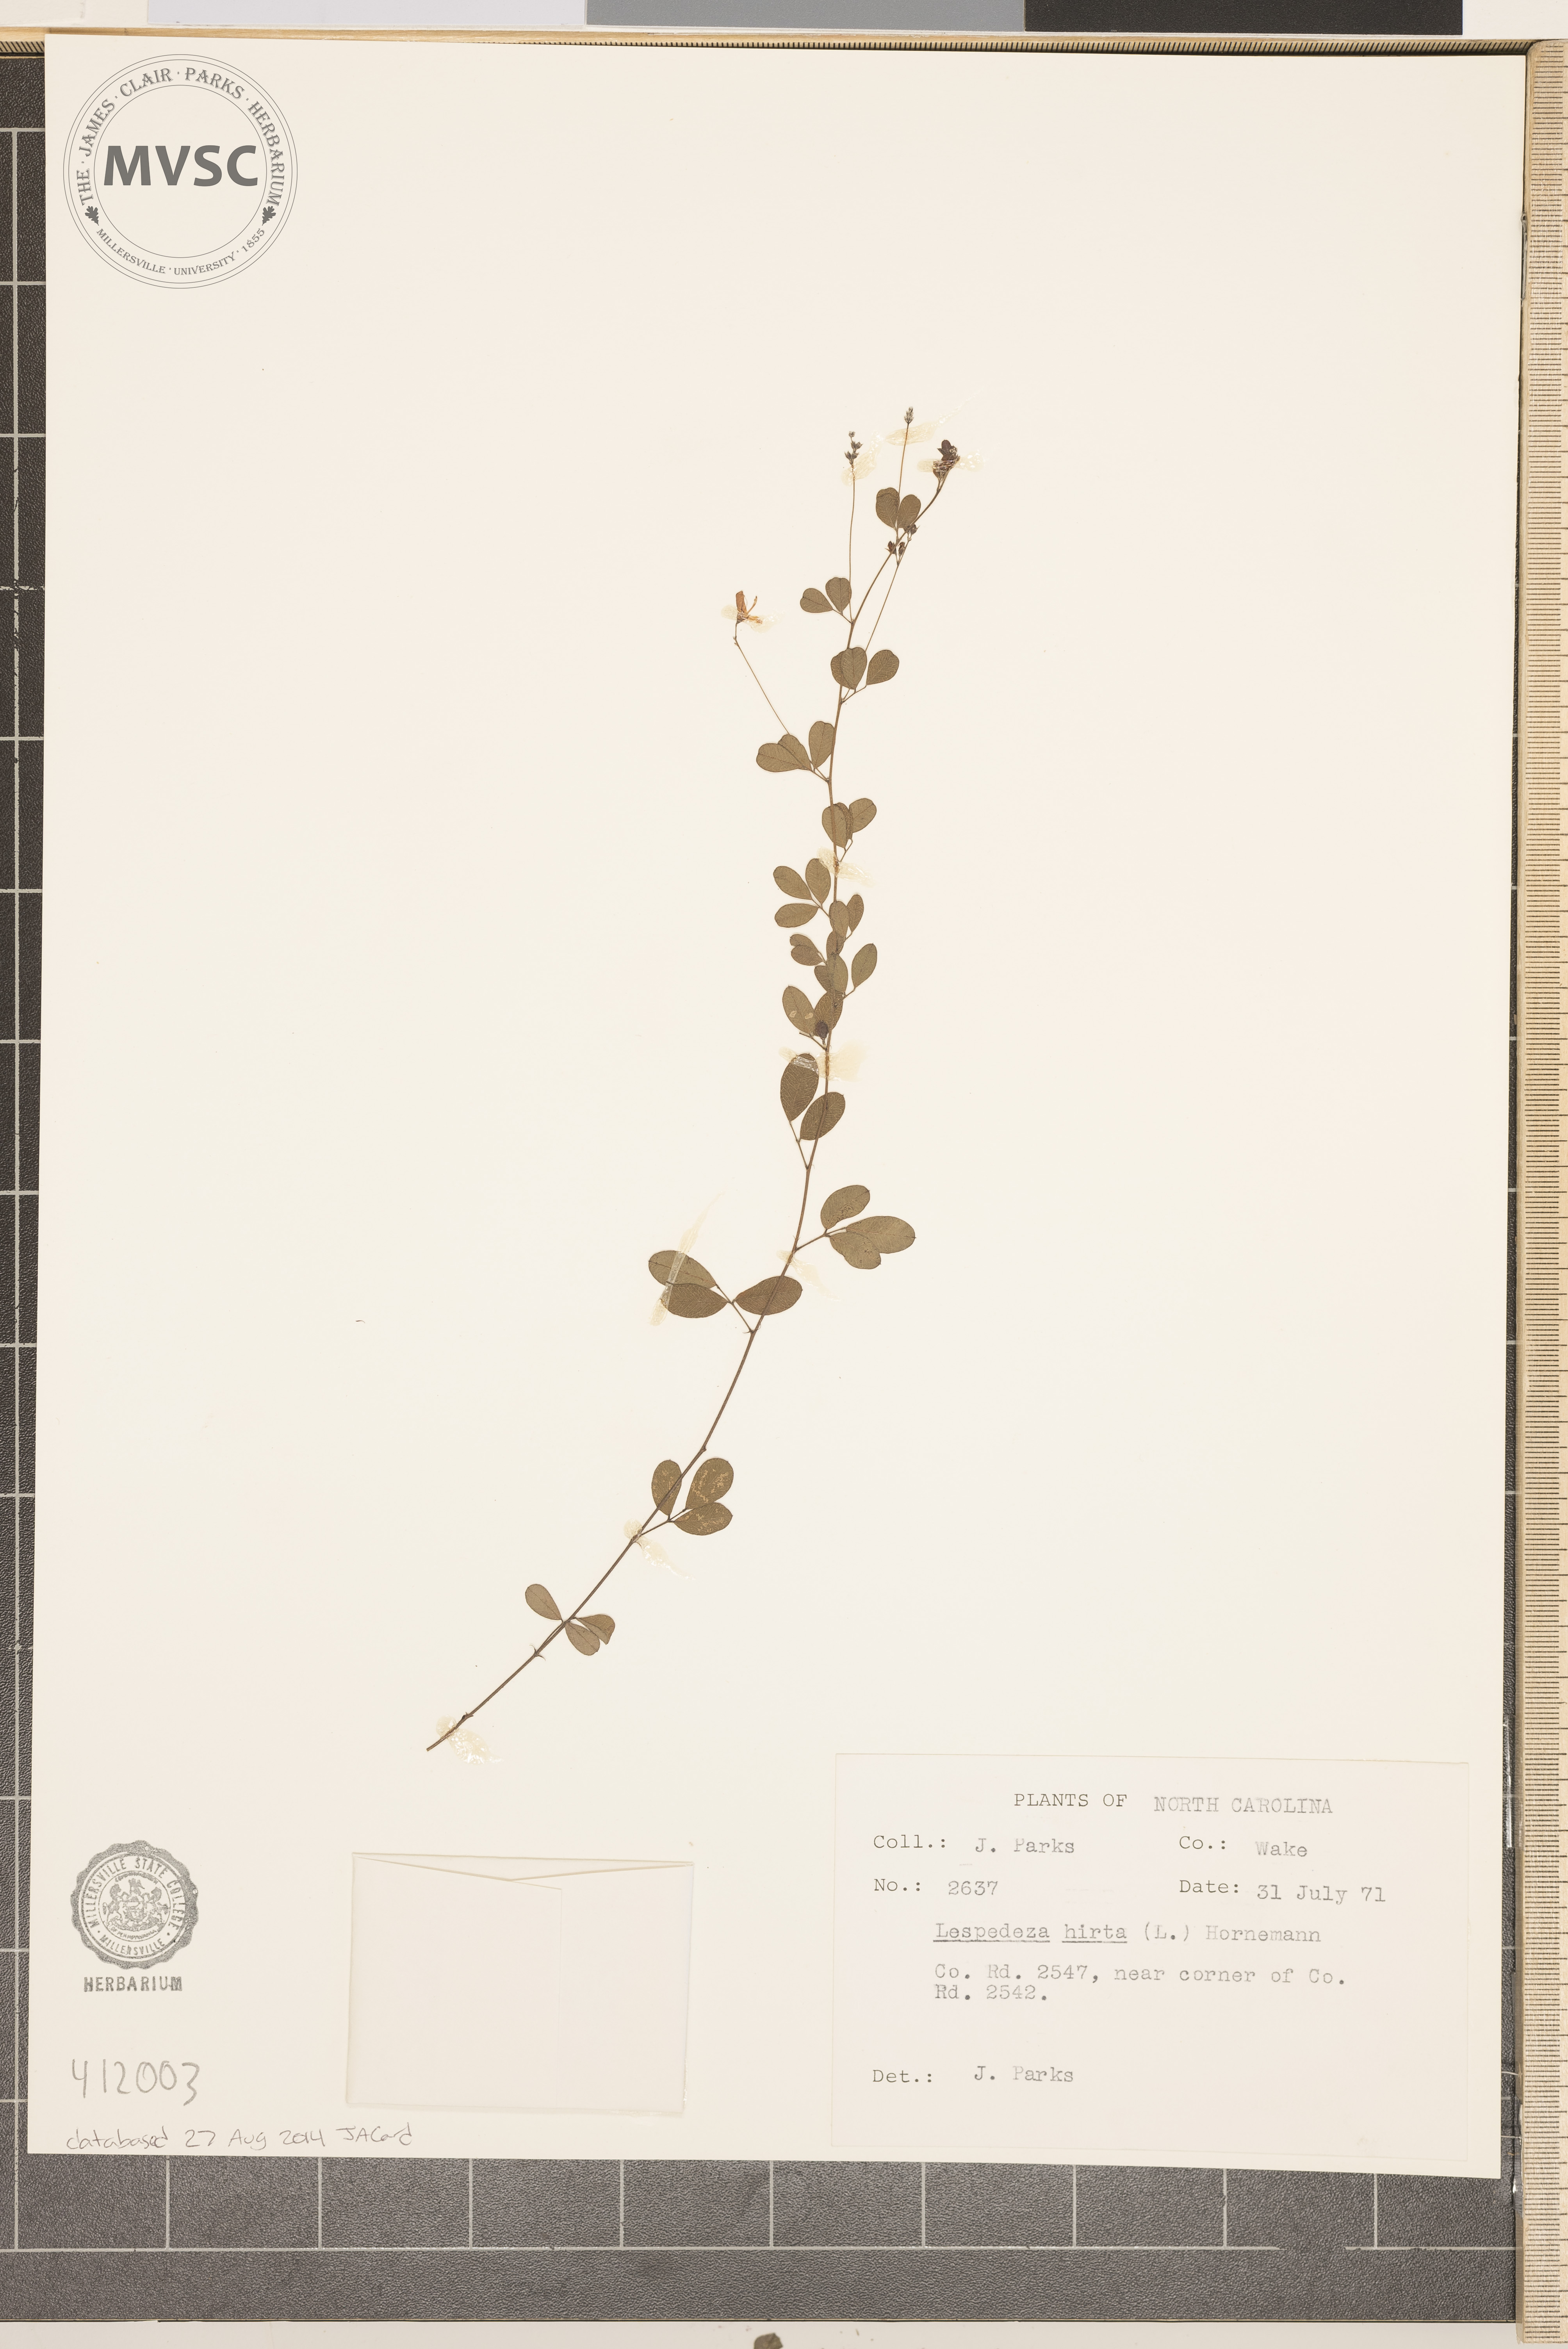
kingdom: Plantae
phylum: Tracheophyta
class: Magnoliopsida
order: Fabales
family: Fabaceae
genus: Lespedeza
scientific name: Lespedeza hirta
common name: Hairy lespedeza
